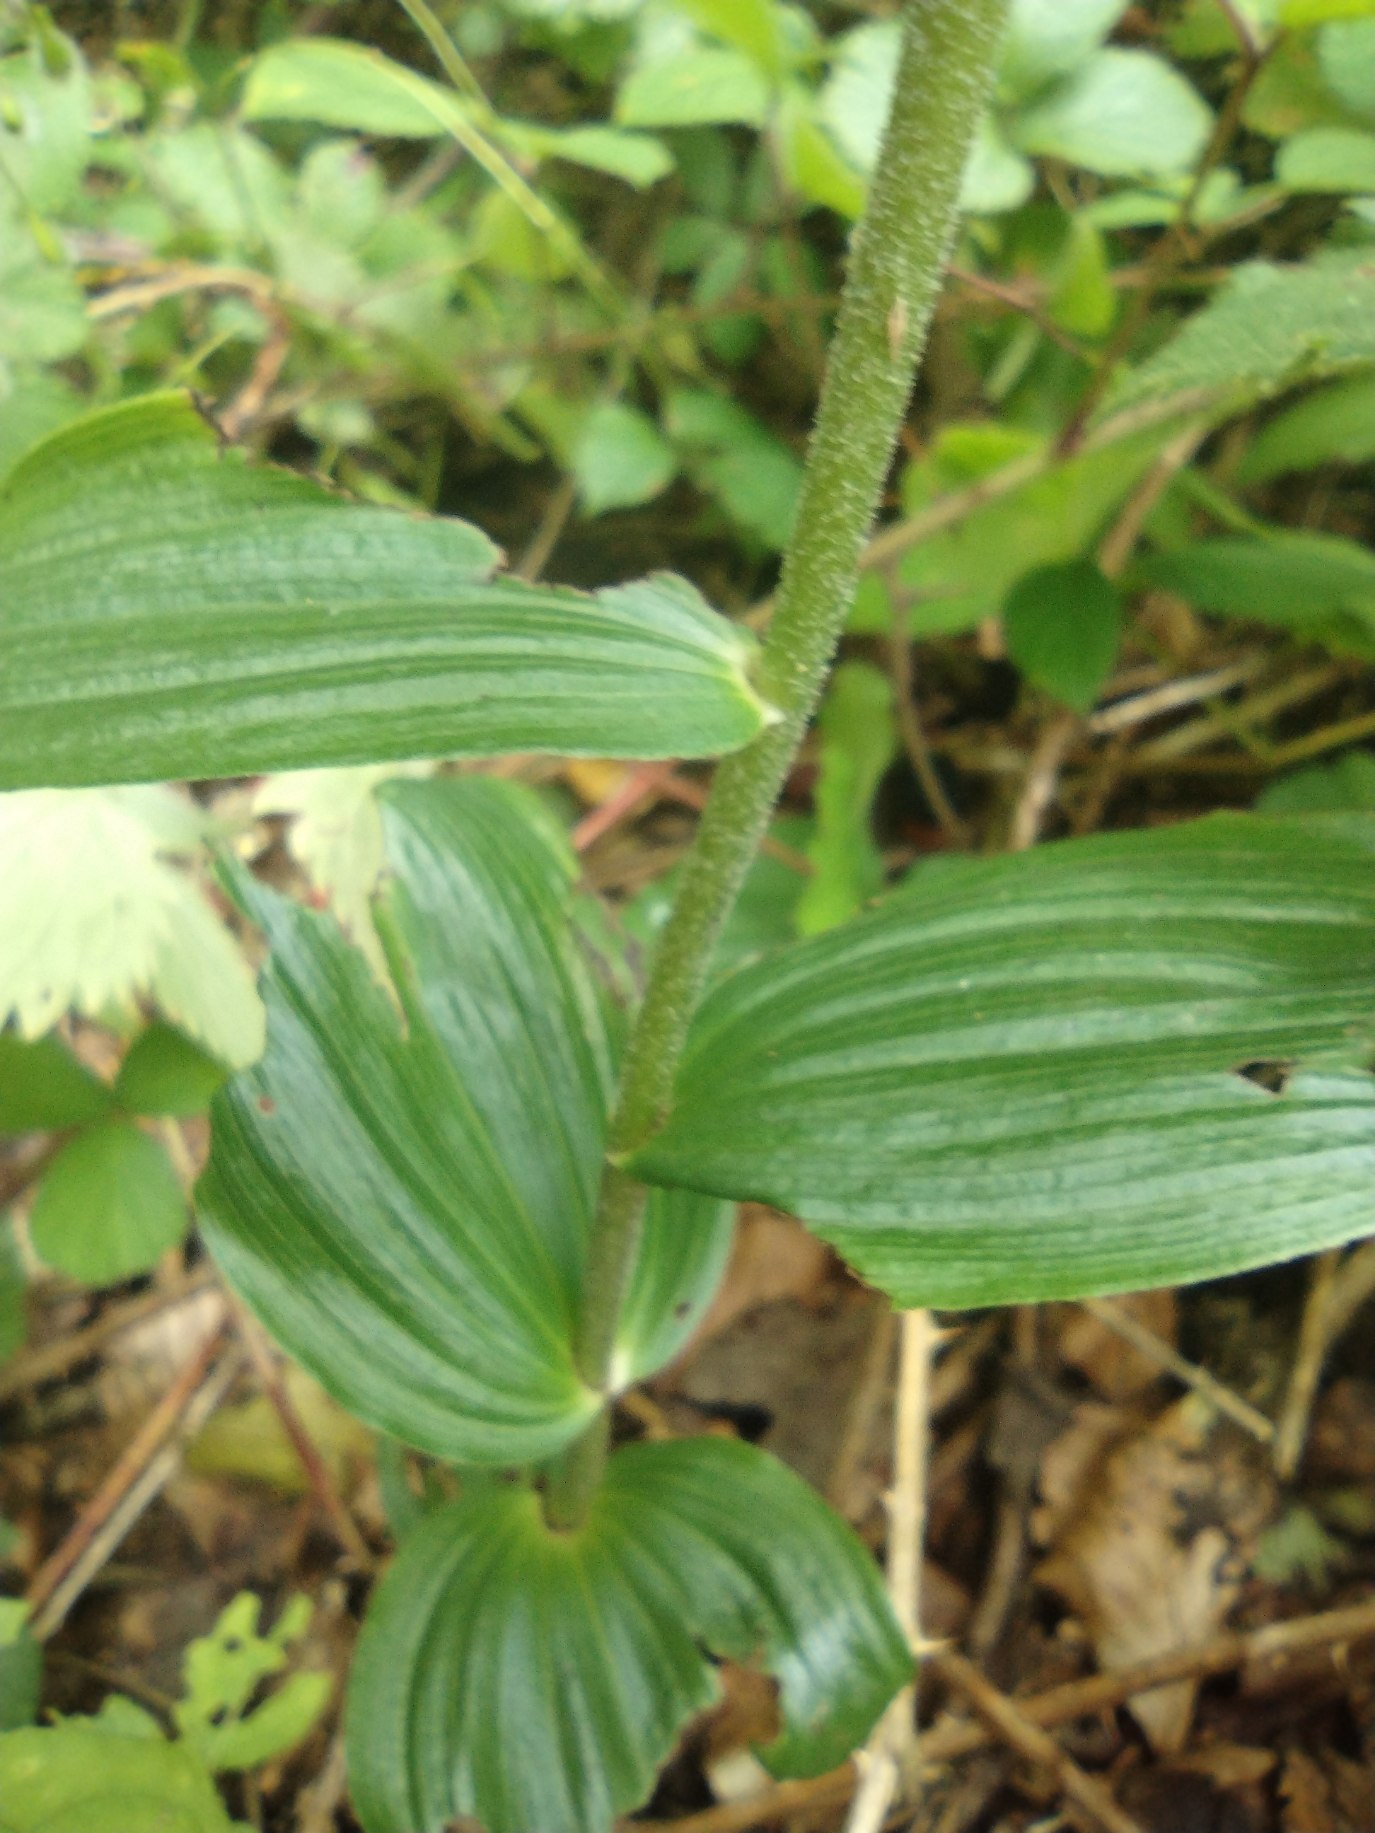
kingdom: Plantae
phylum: Tracheophyta
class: Liliopsida
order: Asparagales
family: Orchidaceae
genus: Epipactis
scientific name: Epipactis helleborine
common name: Skov-hullæbe
